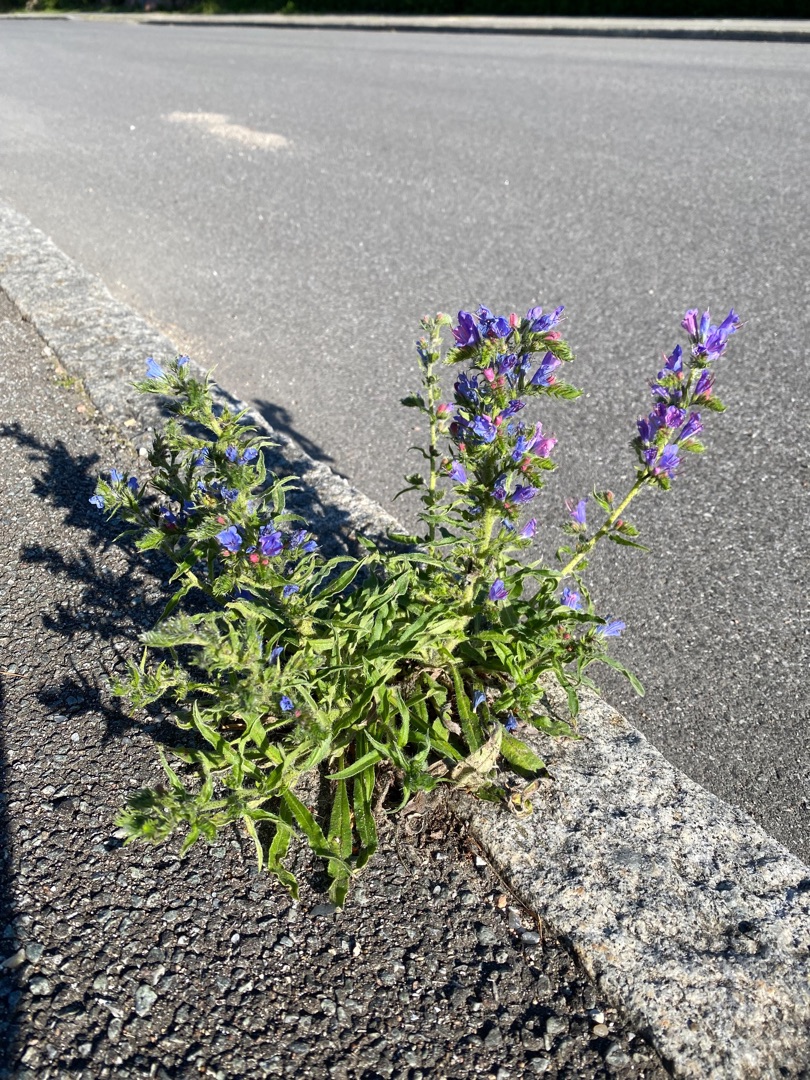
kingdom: Plantae
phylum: Tracheophyta
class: Magnoliopsida
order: Boraginales
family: Boraginaceae
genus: Echium
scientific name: Echium vulgare
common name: Slangehoved
